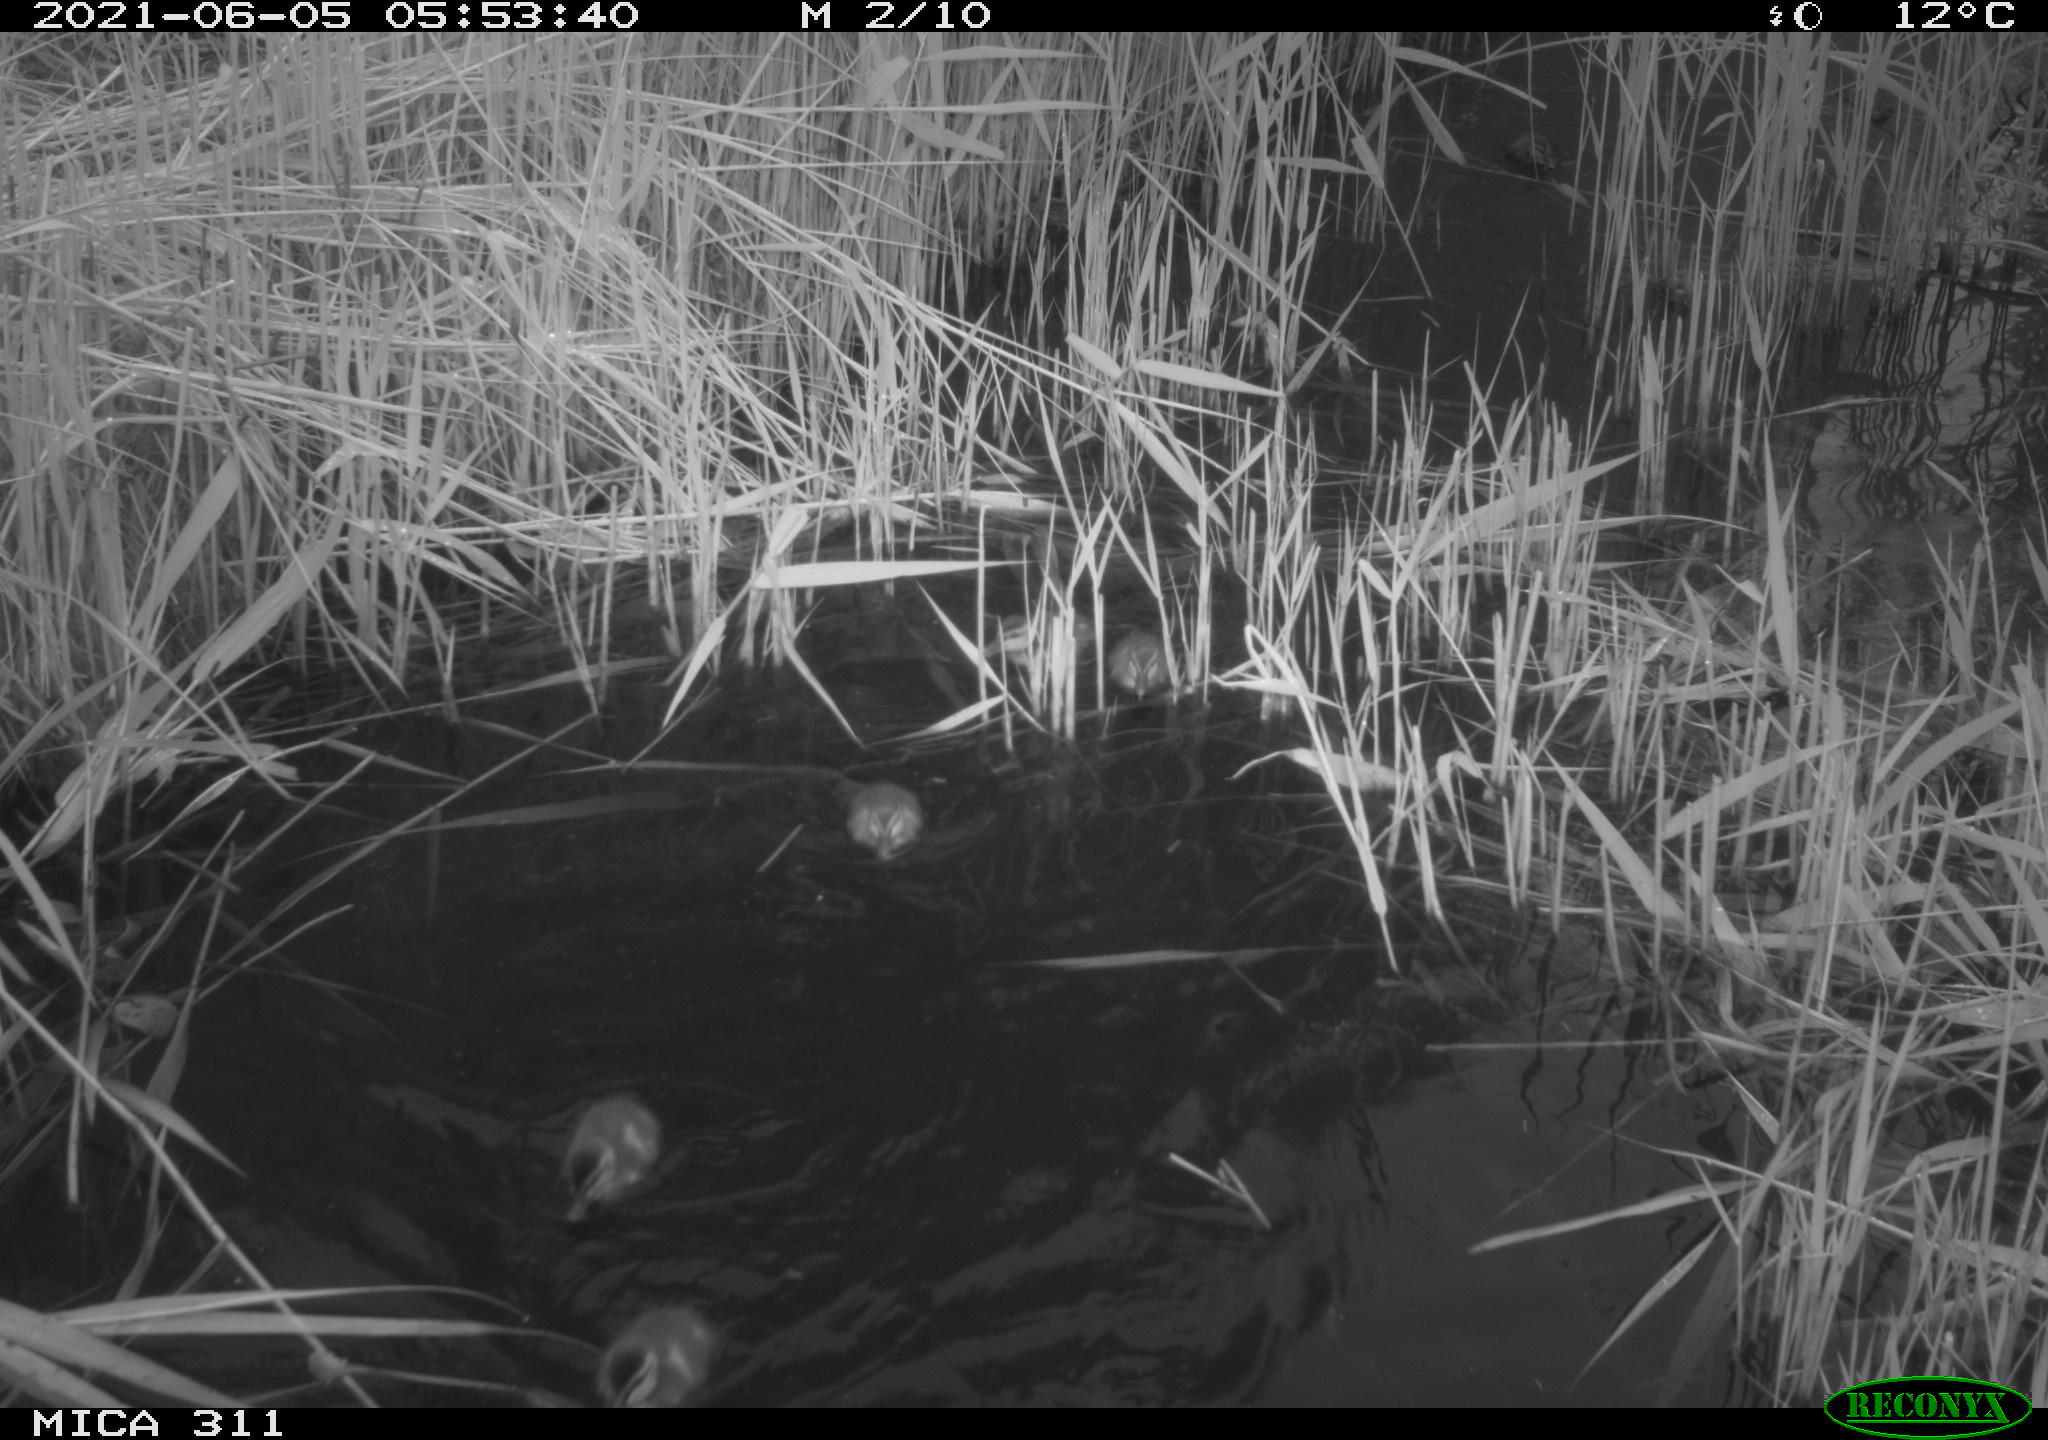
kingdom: Animalia
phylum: Chordata
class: Aves
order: Anseriformes
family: Anatidae
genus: Anas
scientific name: Anas platyrhynchos
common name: Mallard
